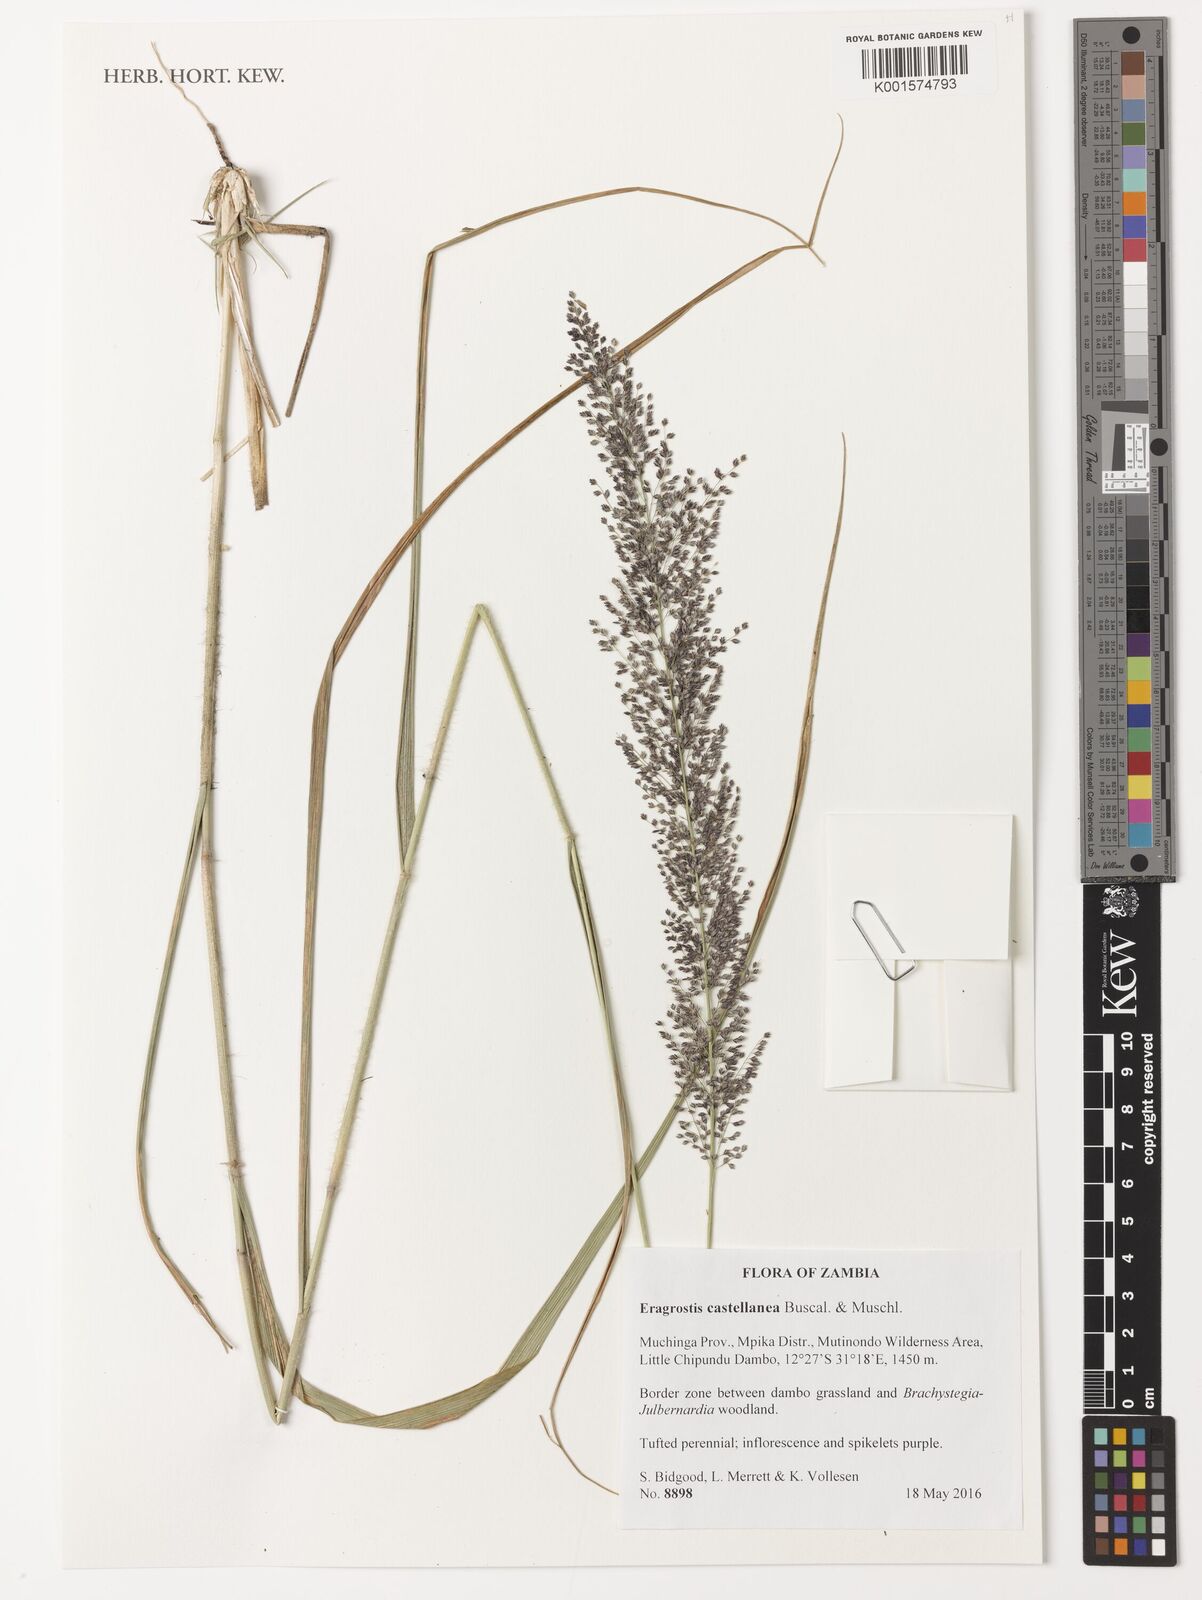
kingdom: Plantae
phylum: Tracheophyta
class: Liliopsida
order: Poales
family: Poaceae
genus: Eragrostis
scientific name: Eragrostis castellaneana
